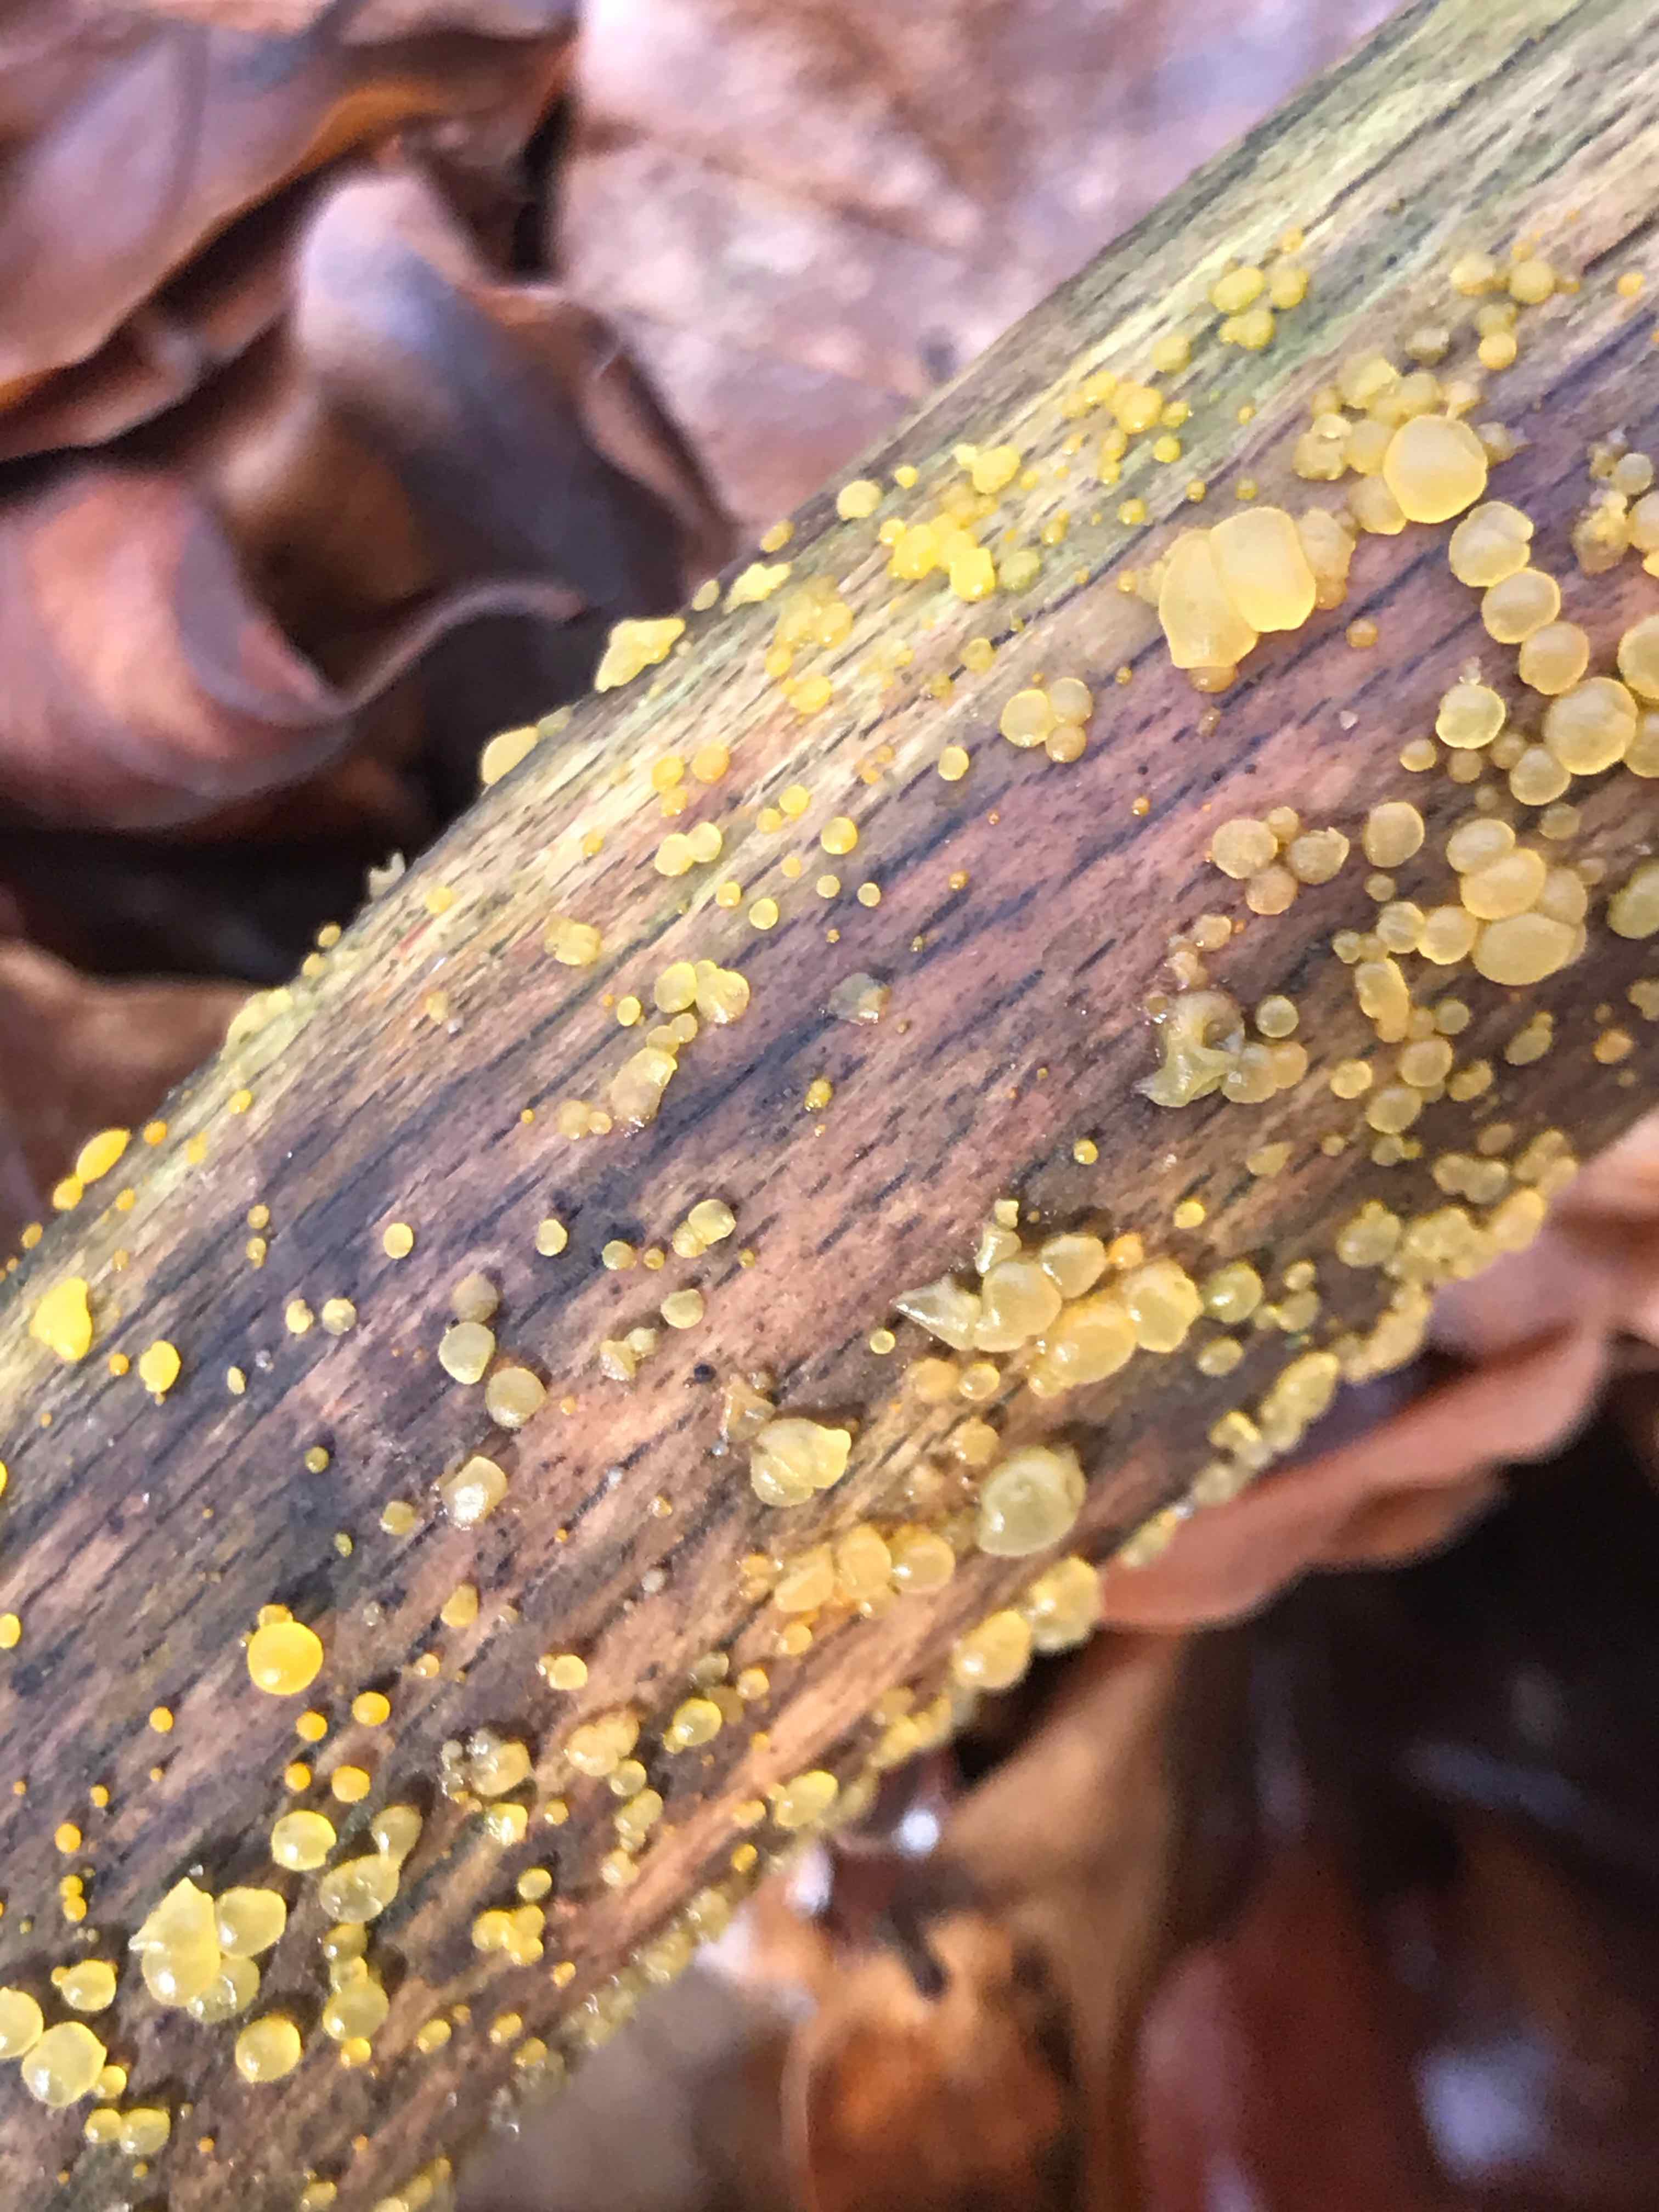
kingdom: Fungi
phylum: Basidiomycota
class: Dacrymycetes
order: Dacrymycetales
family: Dacrymycetaceae
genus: Dacrymyces
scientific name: Dacrymyces
